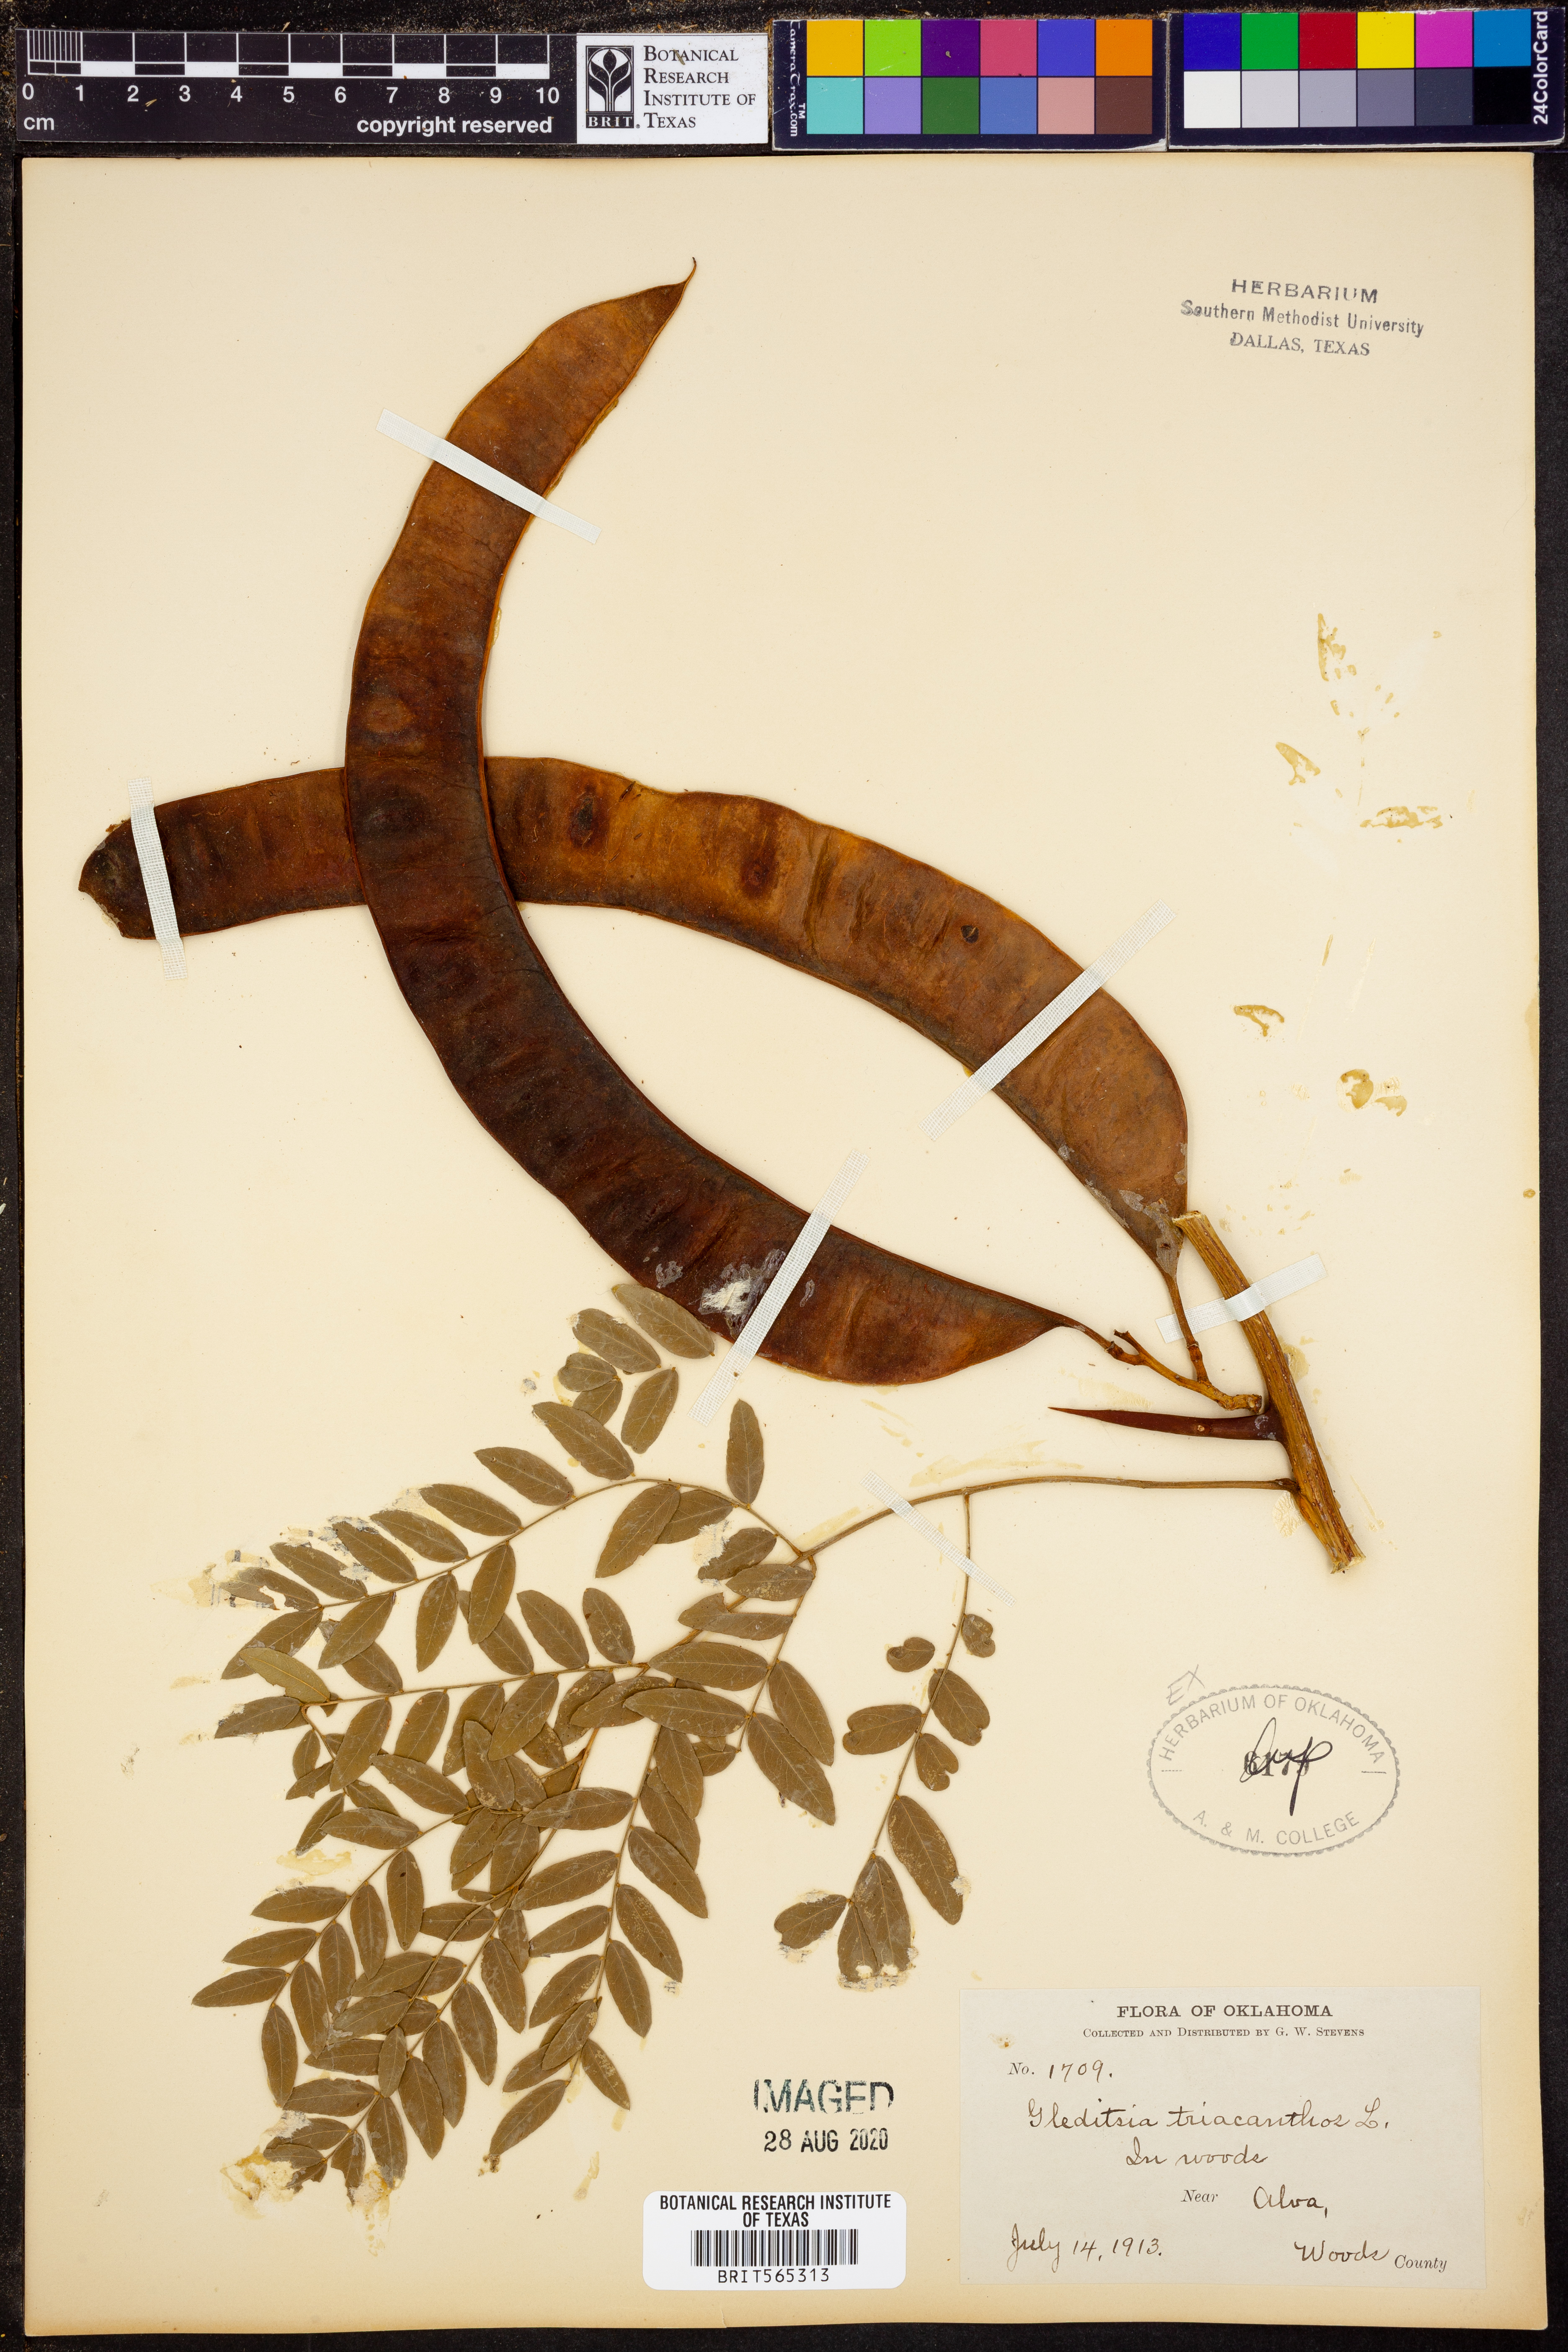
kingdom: Plantae
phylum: Tracheophyta
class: Magnoliopsida
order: Fabales
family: Fabaceae
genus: Gleditsia
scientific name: Gleditsia triacanthos
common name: Common honeylocust
